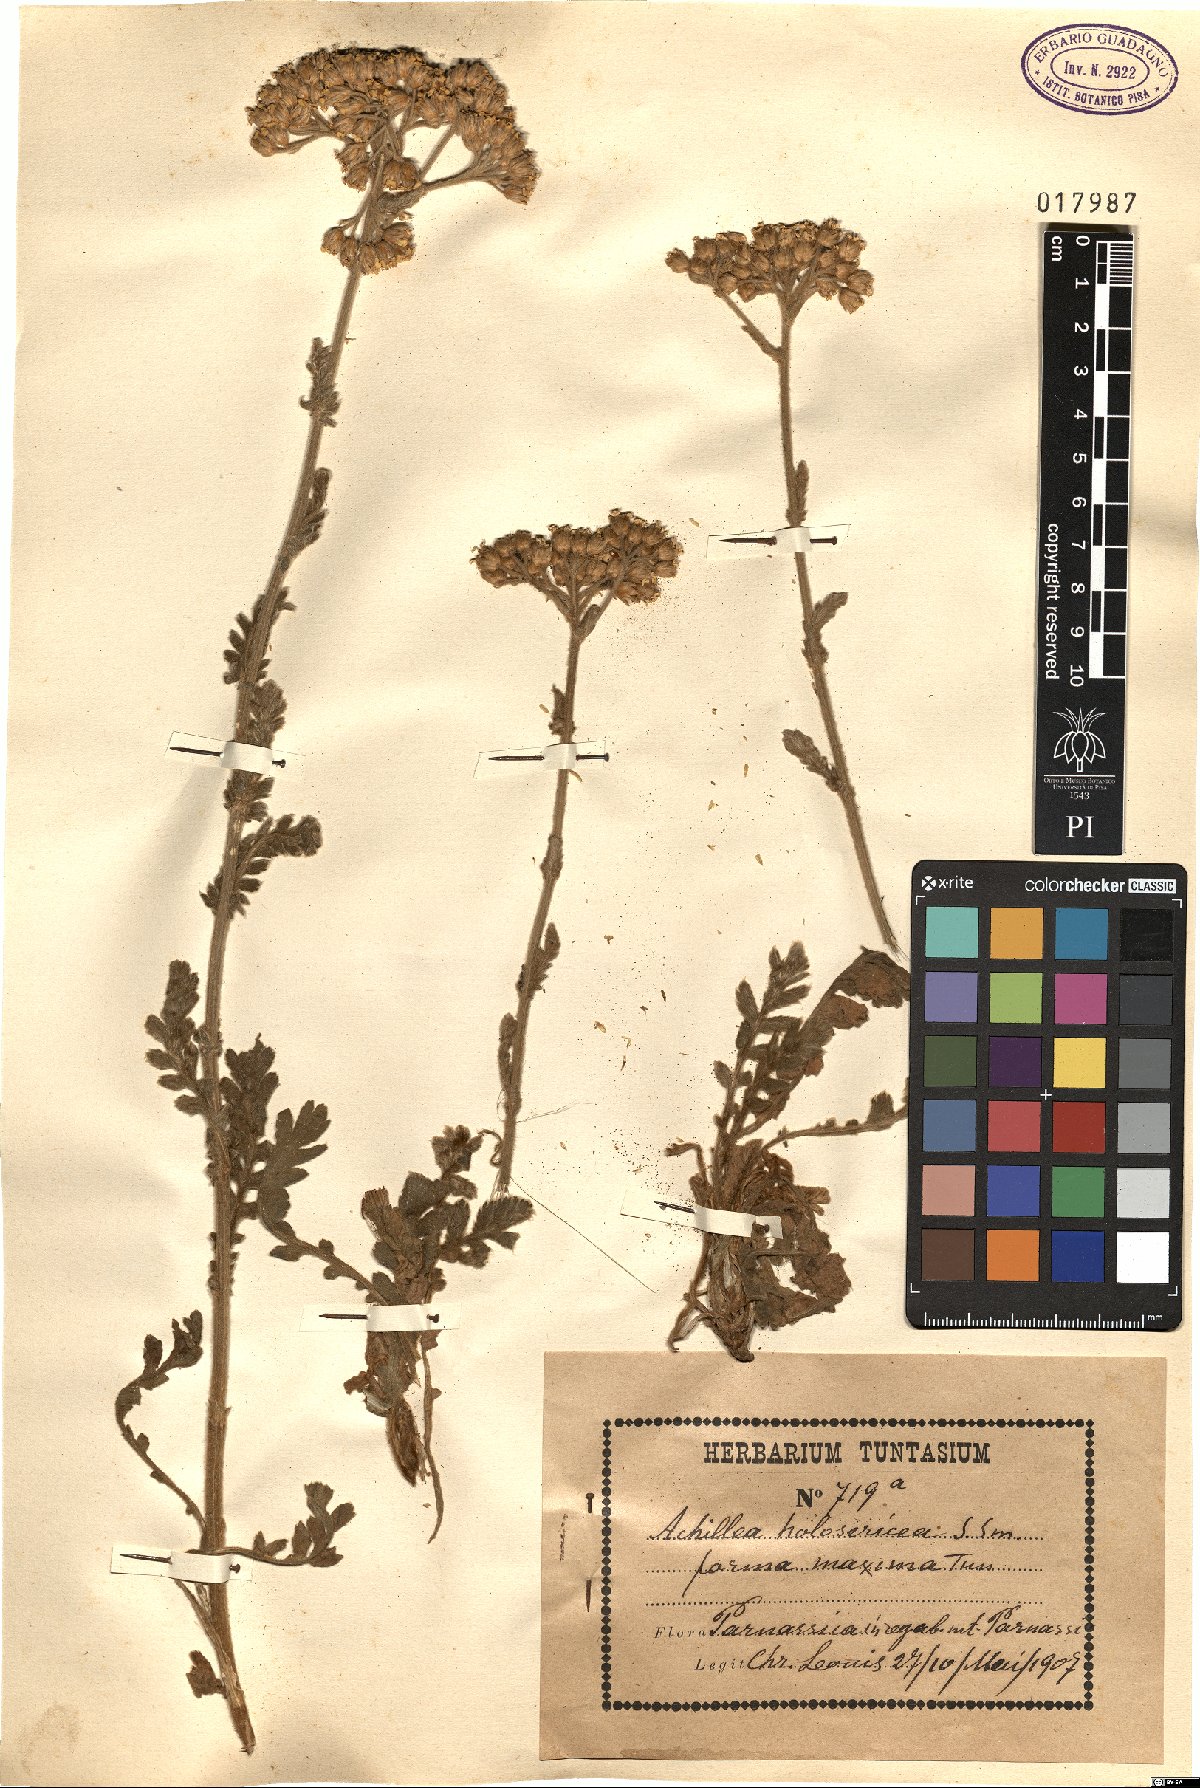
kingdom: Plantae
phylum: Tracheophyta
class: Magnoliopsida
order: Asterales
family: Asteraceae
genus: Achillea
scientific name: Achillea holosericea
